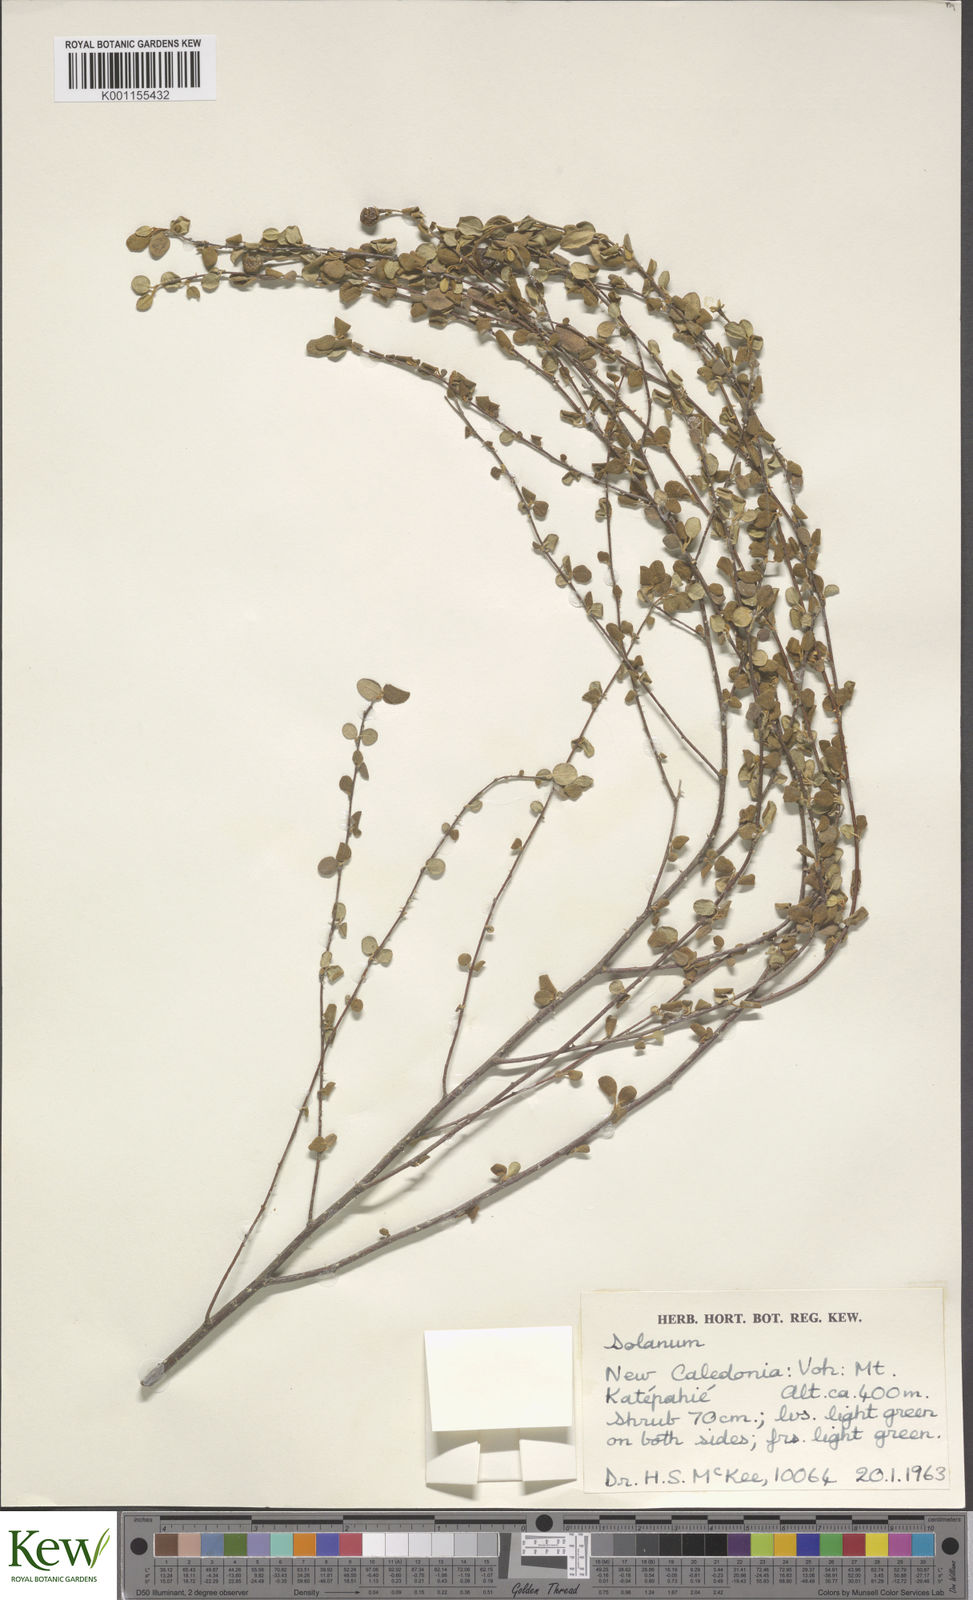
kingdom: Plantae
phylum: Tracheophyta
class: Magnoliopsida
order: Solanales
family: Solanaceae
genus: Solanum
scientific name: Solanum vaccinioides
